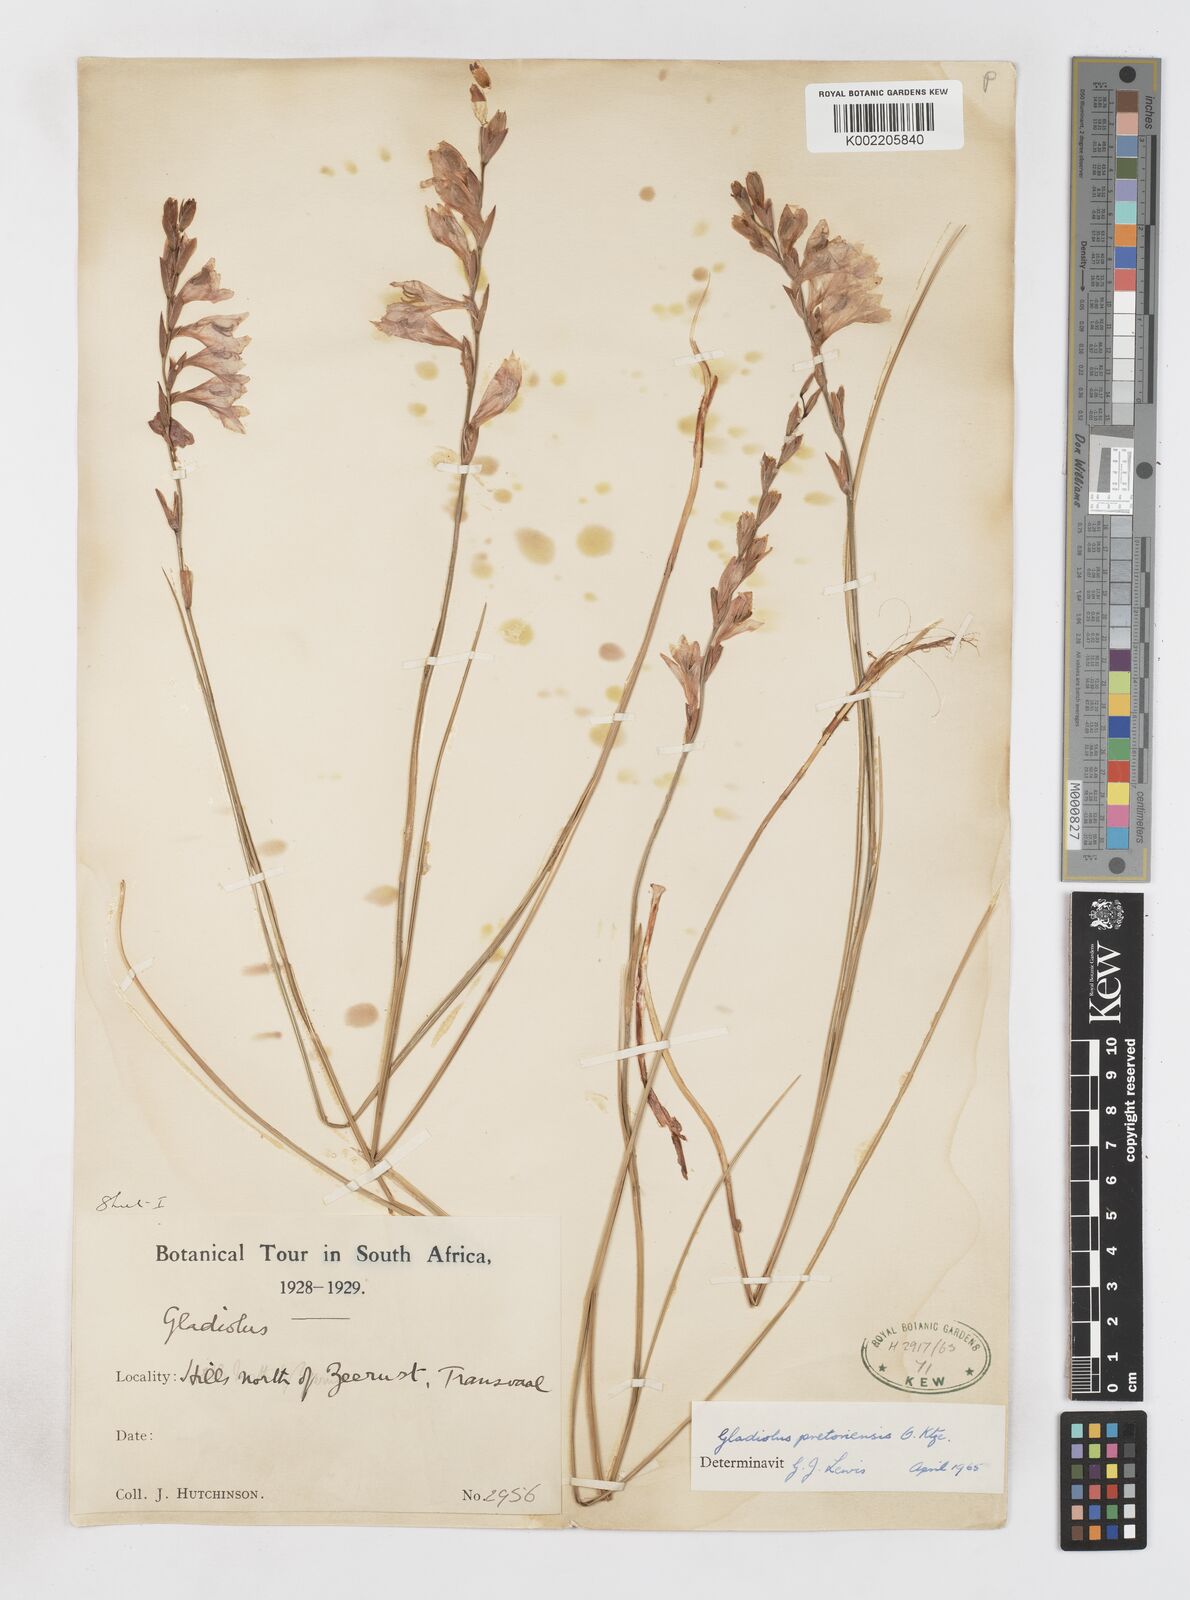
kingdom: Plantae
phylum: Tracheophyta
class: Liliopsida
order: Asparagales
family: Iridaceae
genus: Gladiolus
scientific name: Gladiolus pretoriensis
